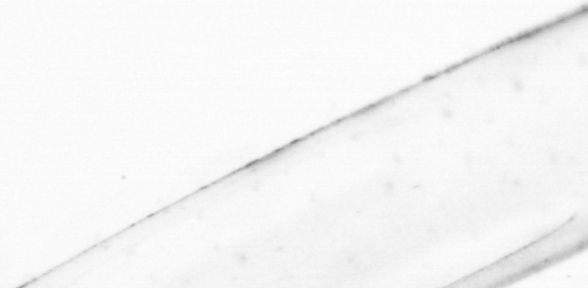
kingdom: Animalia
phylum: Chaetognatha
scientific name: Chaetognatha
